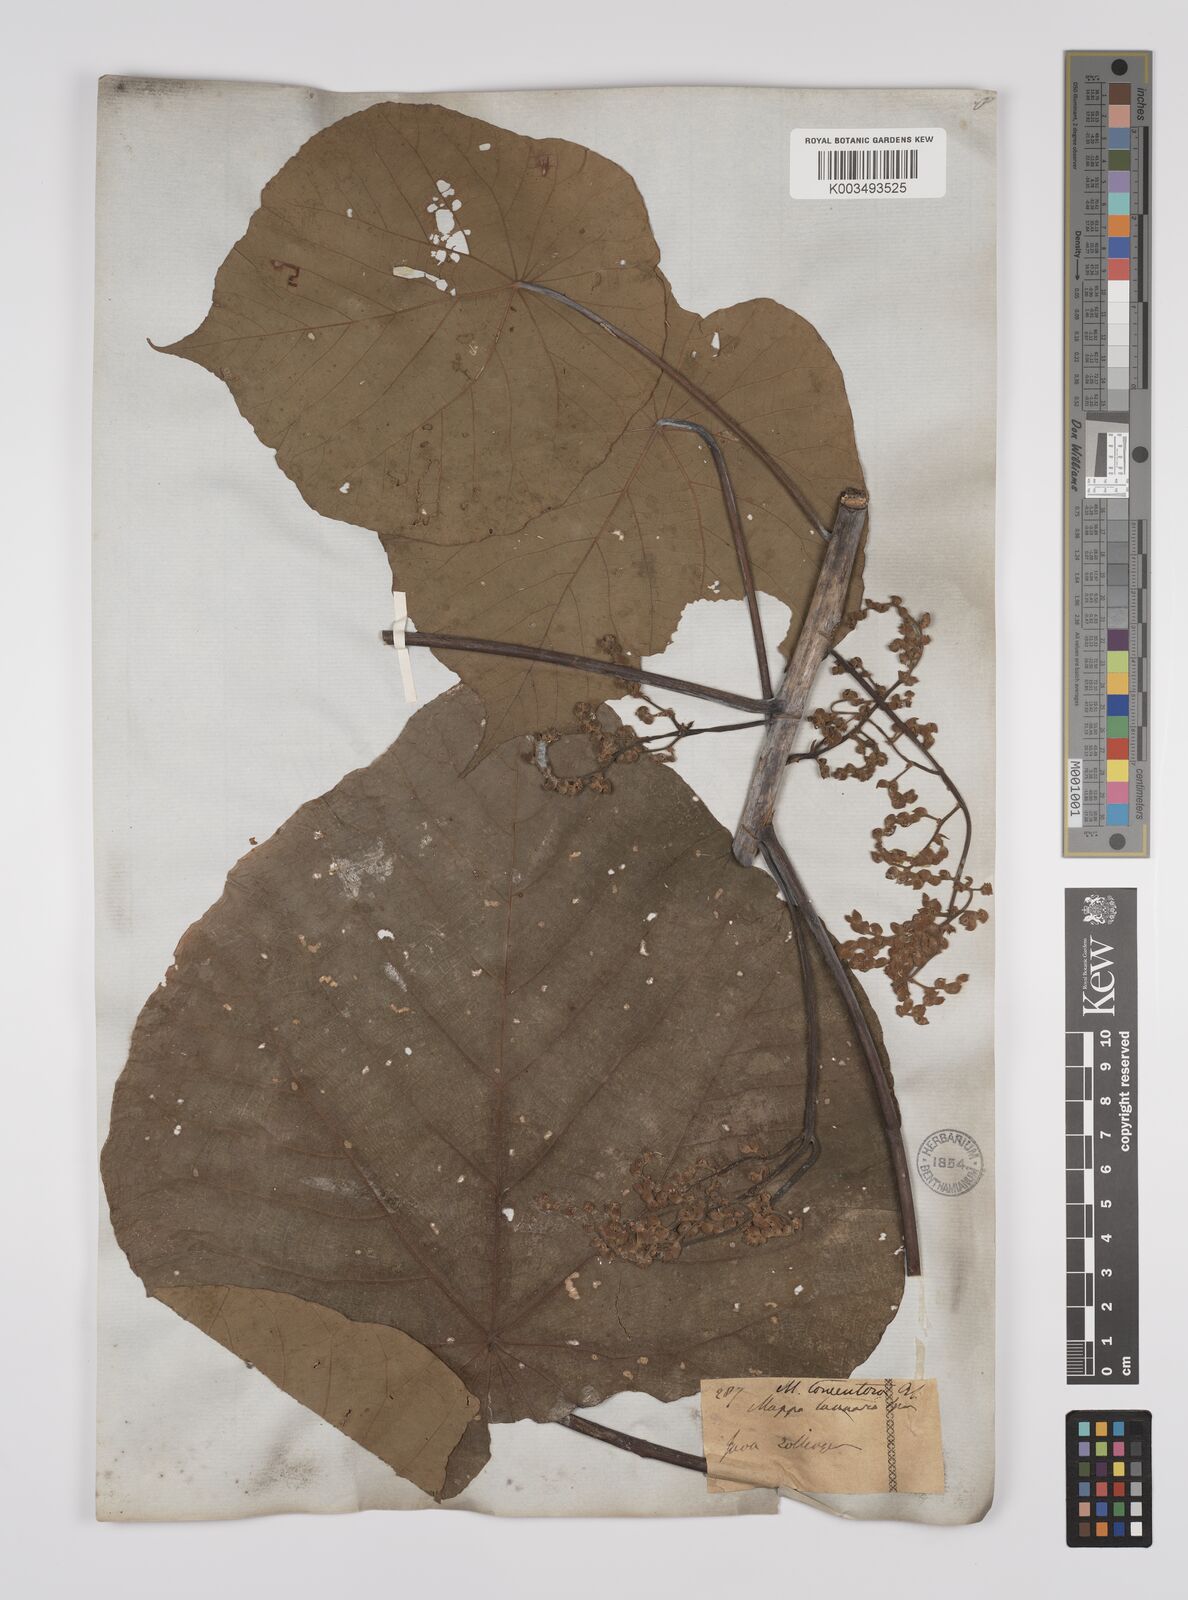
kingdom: Plantae
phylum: Tracheophyta
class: Magnoliopsida
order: Malpighiales
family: Euphorbiaceae
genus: Macaranga
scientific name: Macaranga tanarius
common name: Parasol leaf tree
